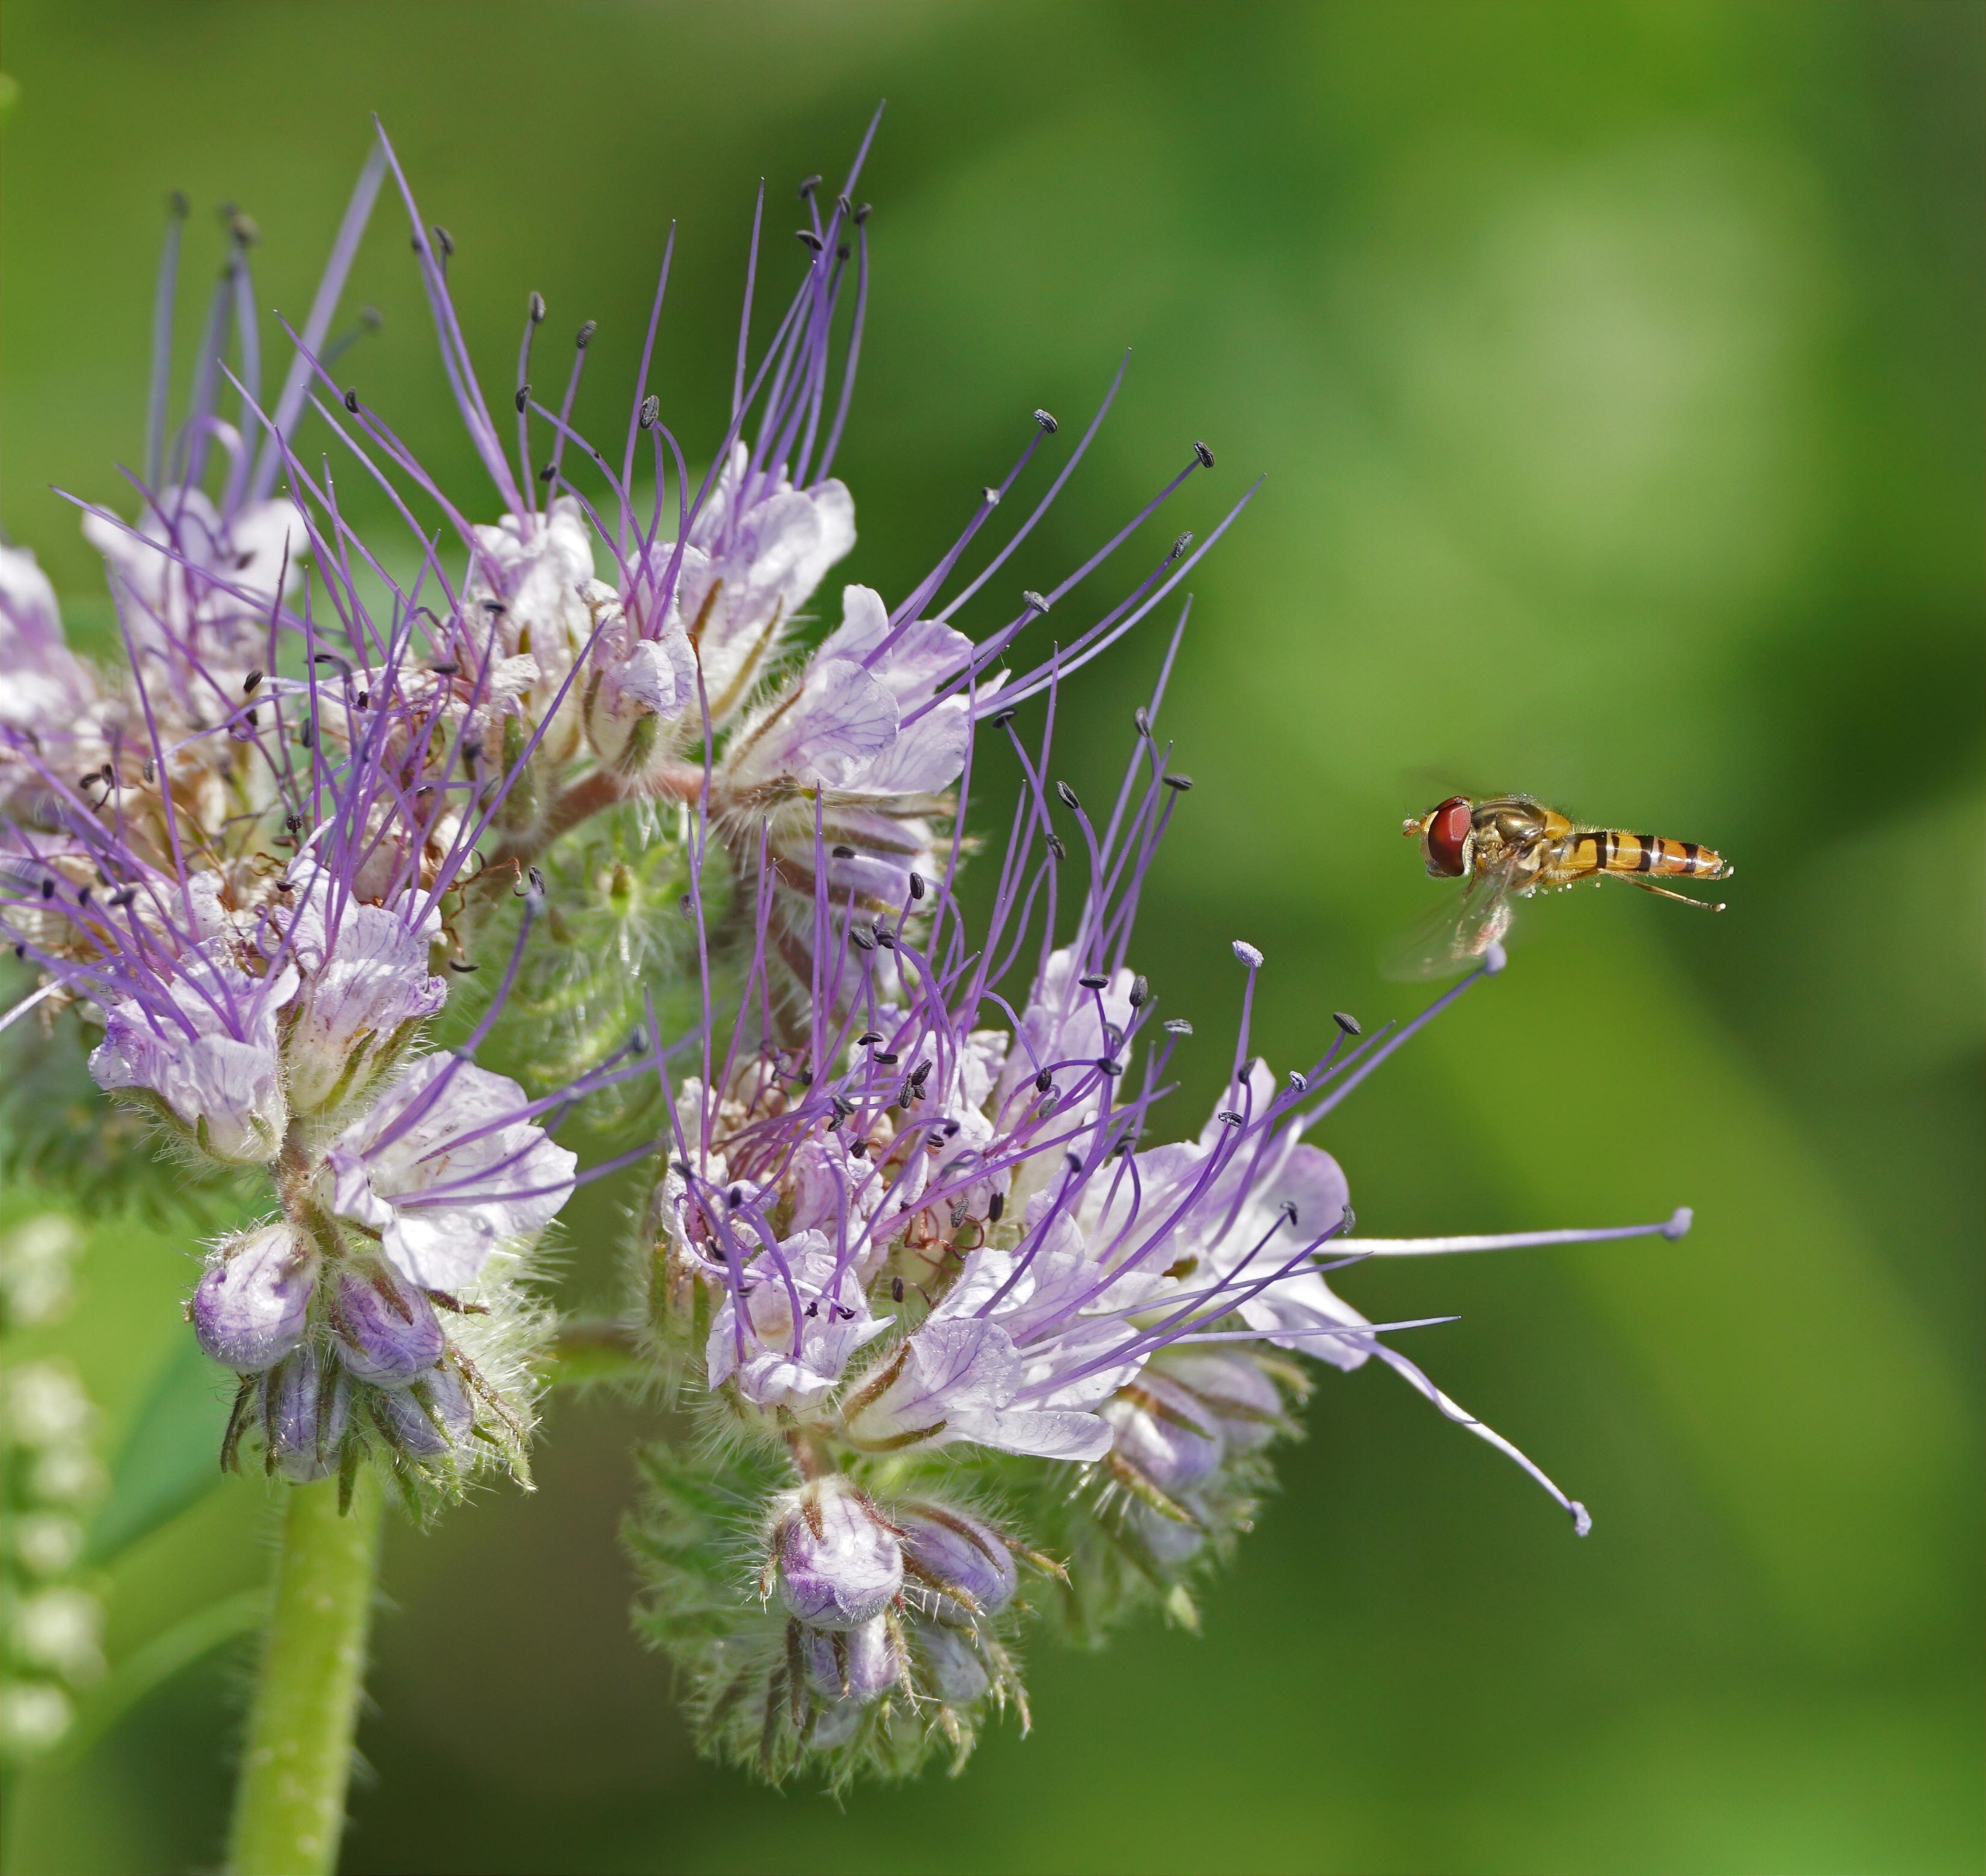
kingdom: Animalia
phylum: Arthropoda
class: Insecta
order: Diptera
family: Syrphidae
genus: Episyrphus
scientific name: Episyrphus balteatus
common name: Dobbeltbåndet svirreflue
